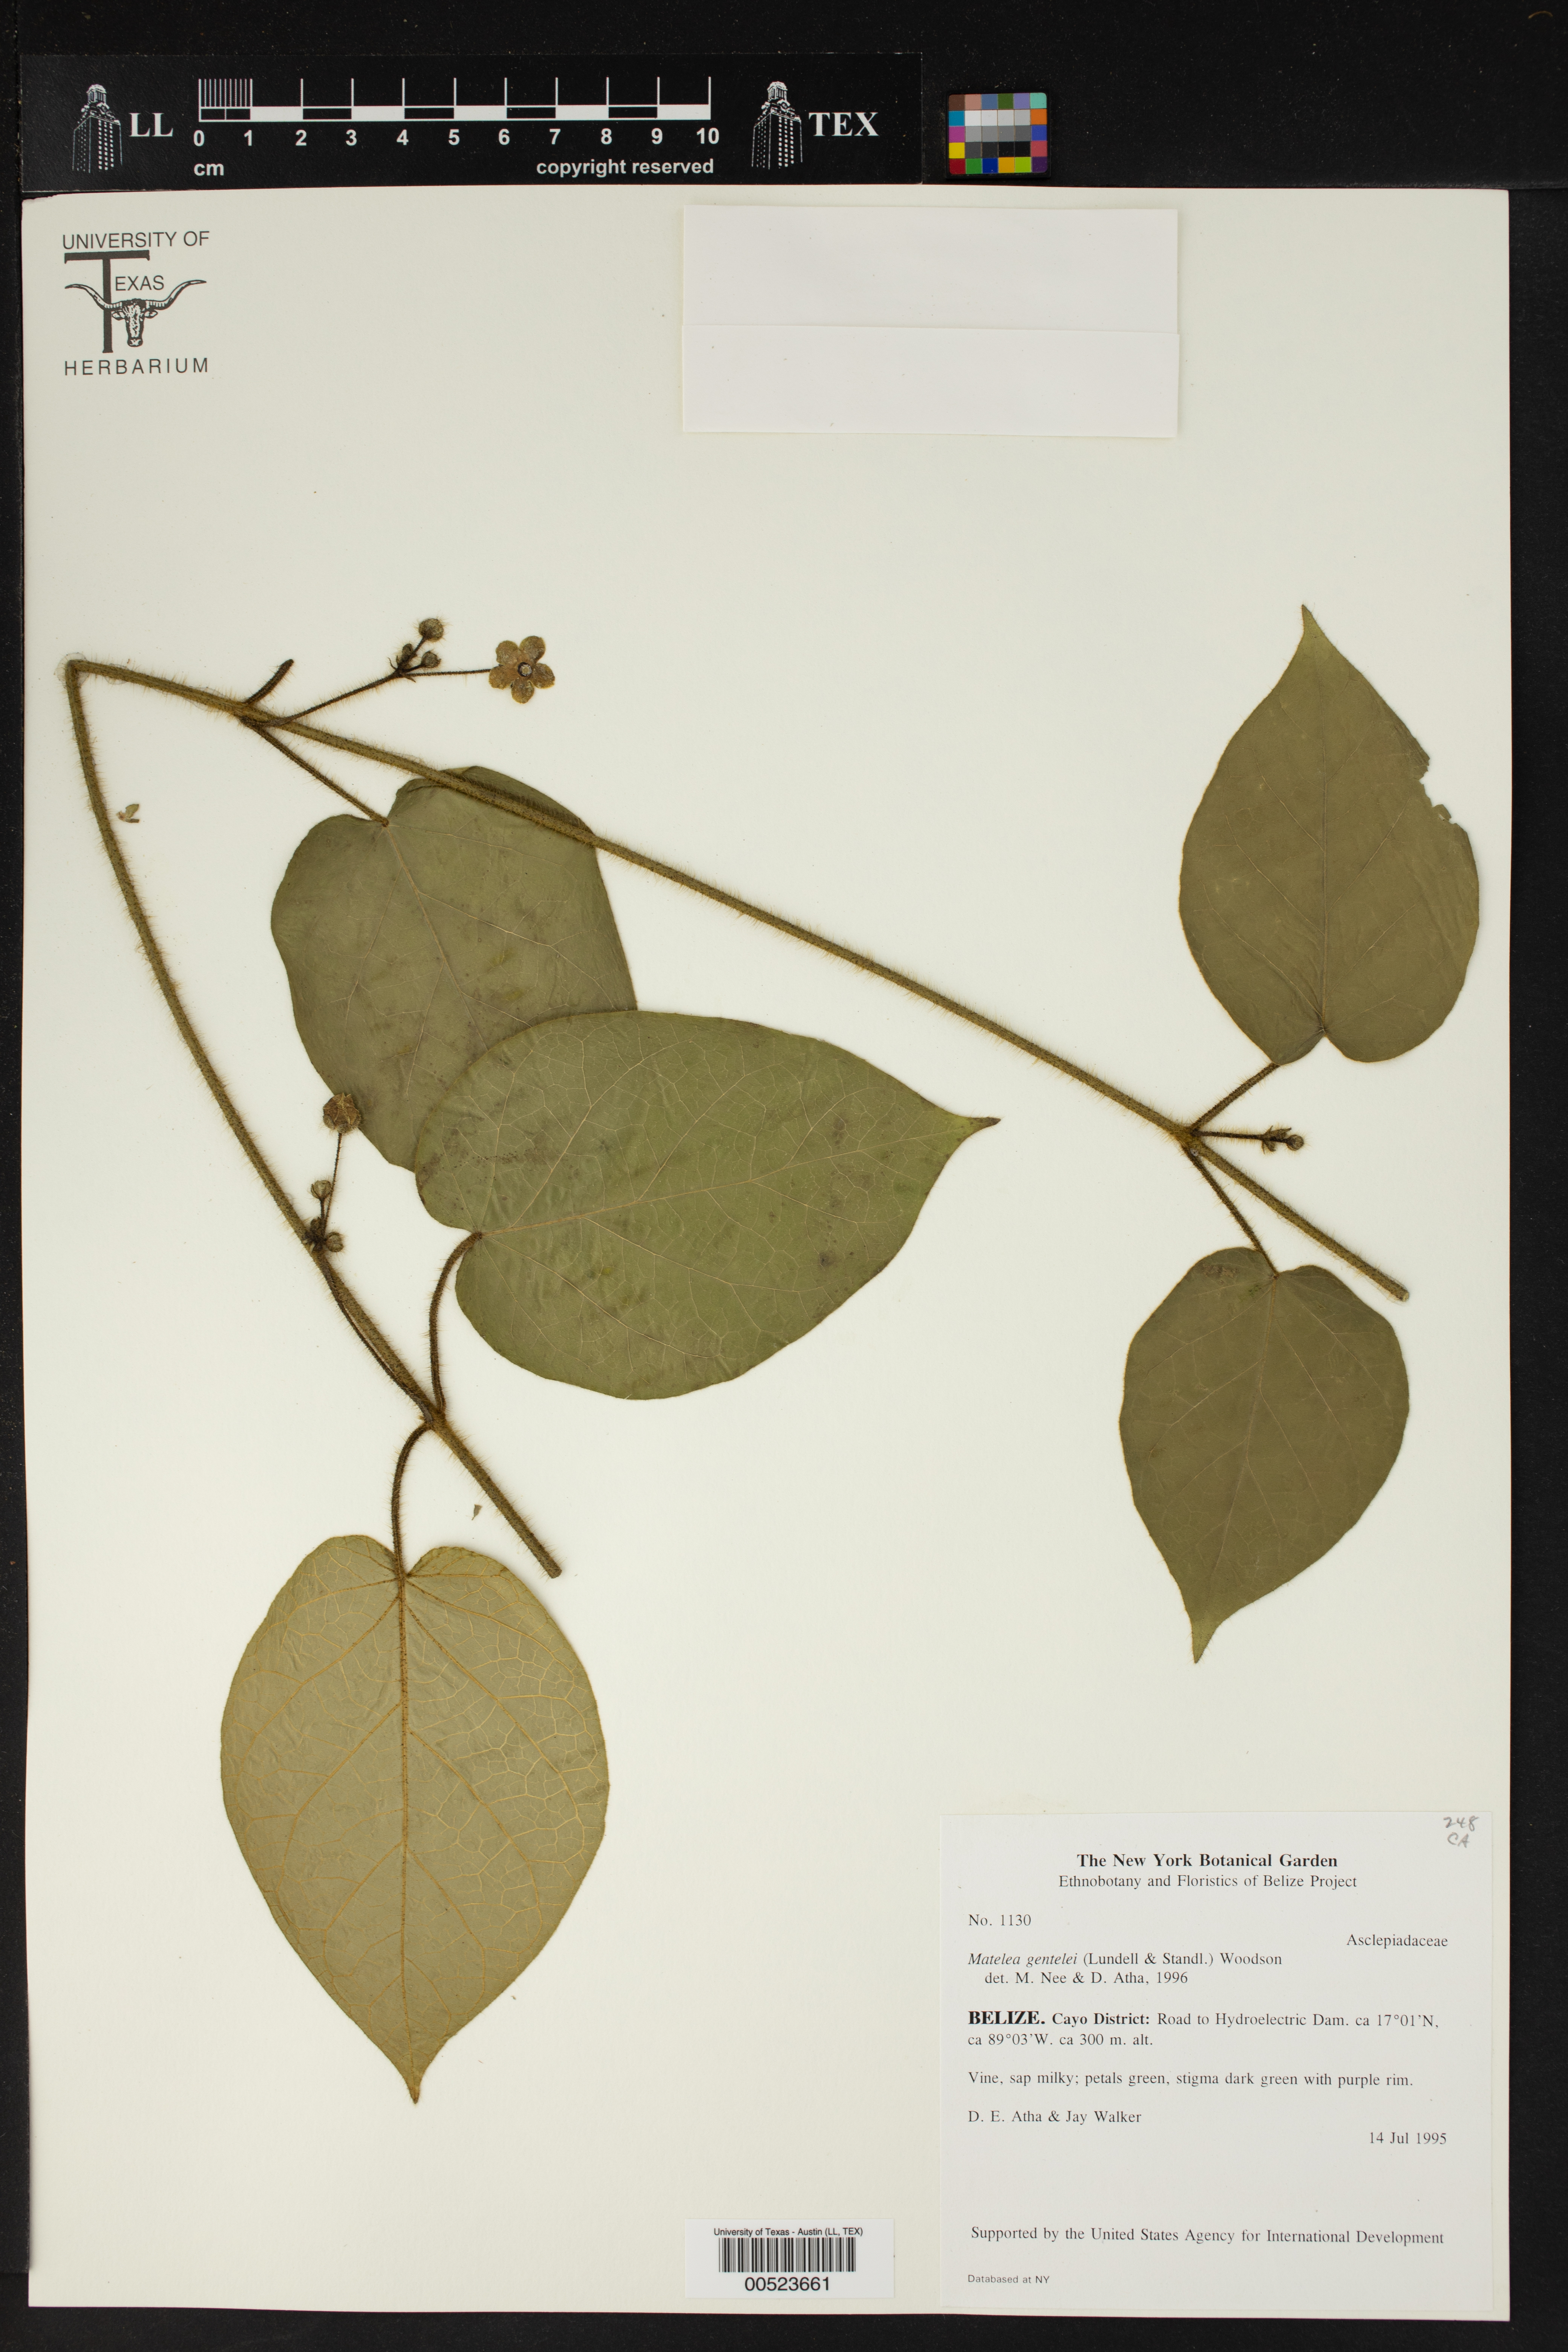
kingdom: Plantae
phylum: Tracheophyta
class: Magnoliopsida
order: Gentianales
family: Apocynaceae
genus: Matelea
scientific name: Matelea gentlei
